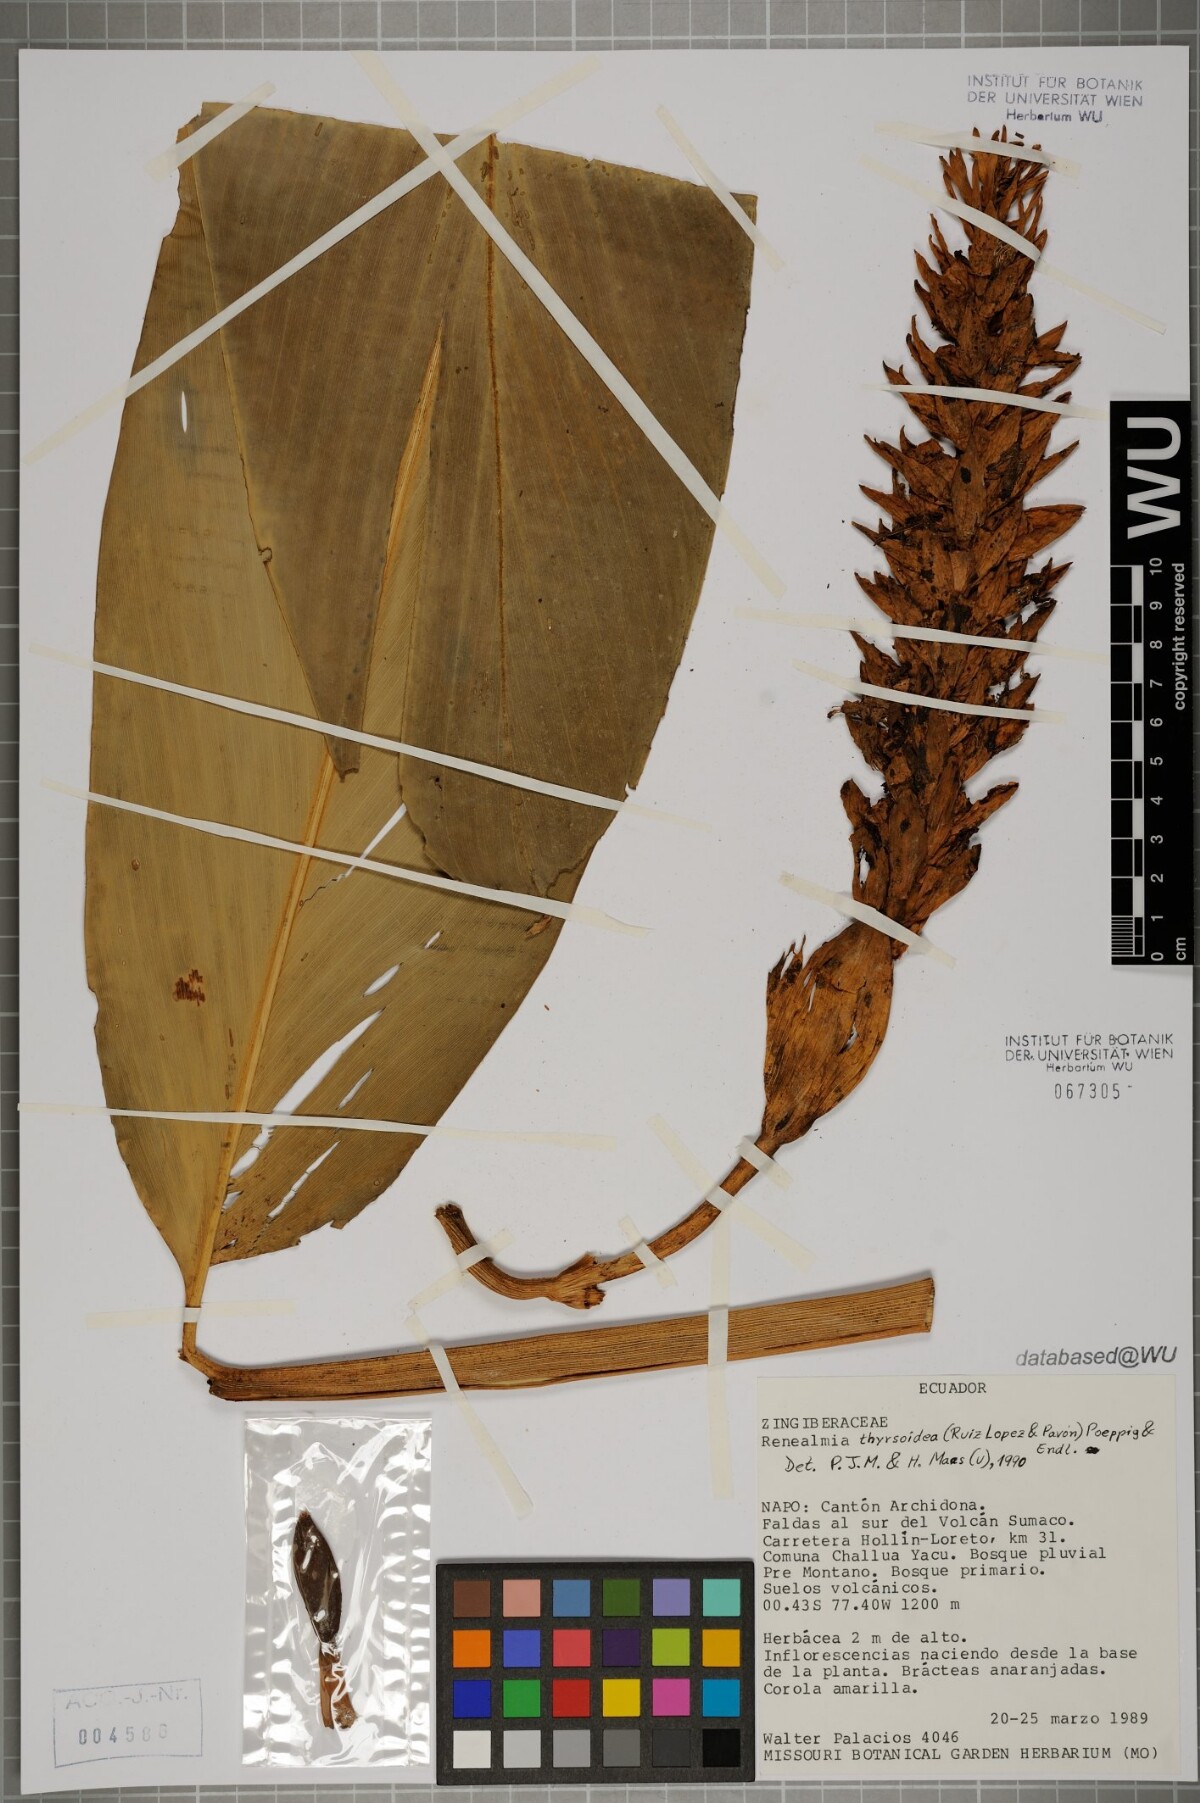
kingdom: Plantae
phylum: Tracheophyta
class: Liliopsida
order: Zingiberales
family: Zingiberaceae
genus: Renealmia
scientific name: Renealmia thyrsoidea
